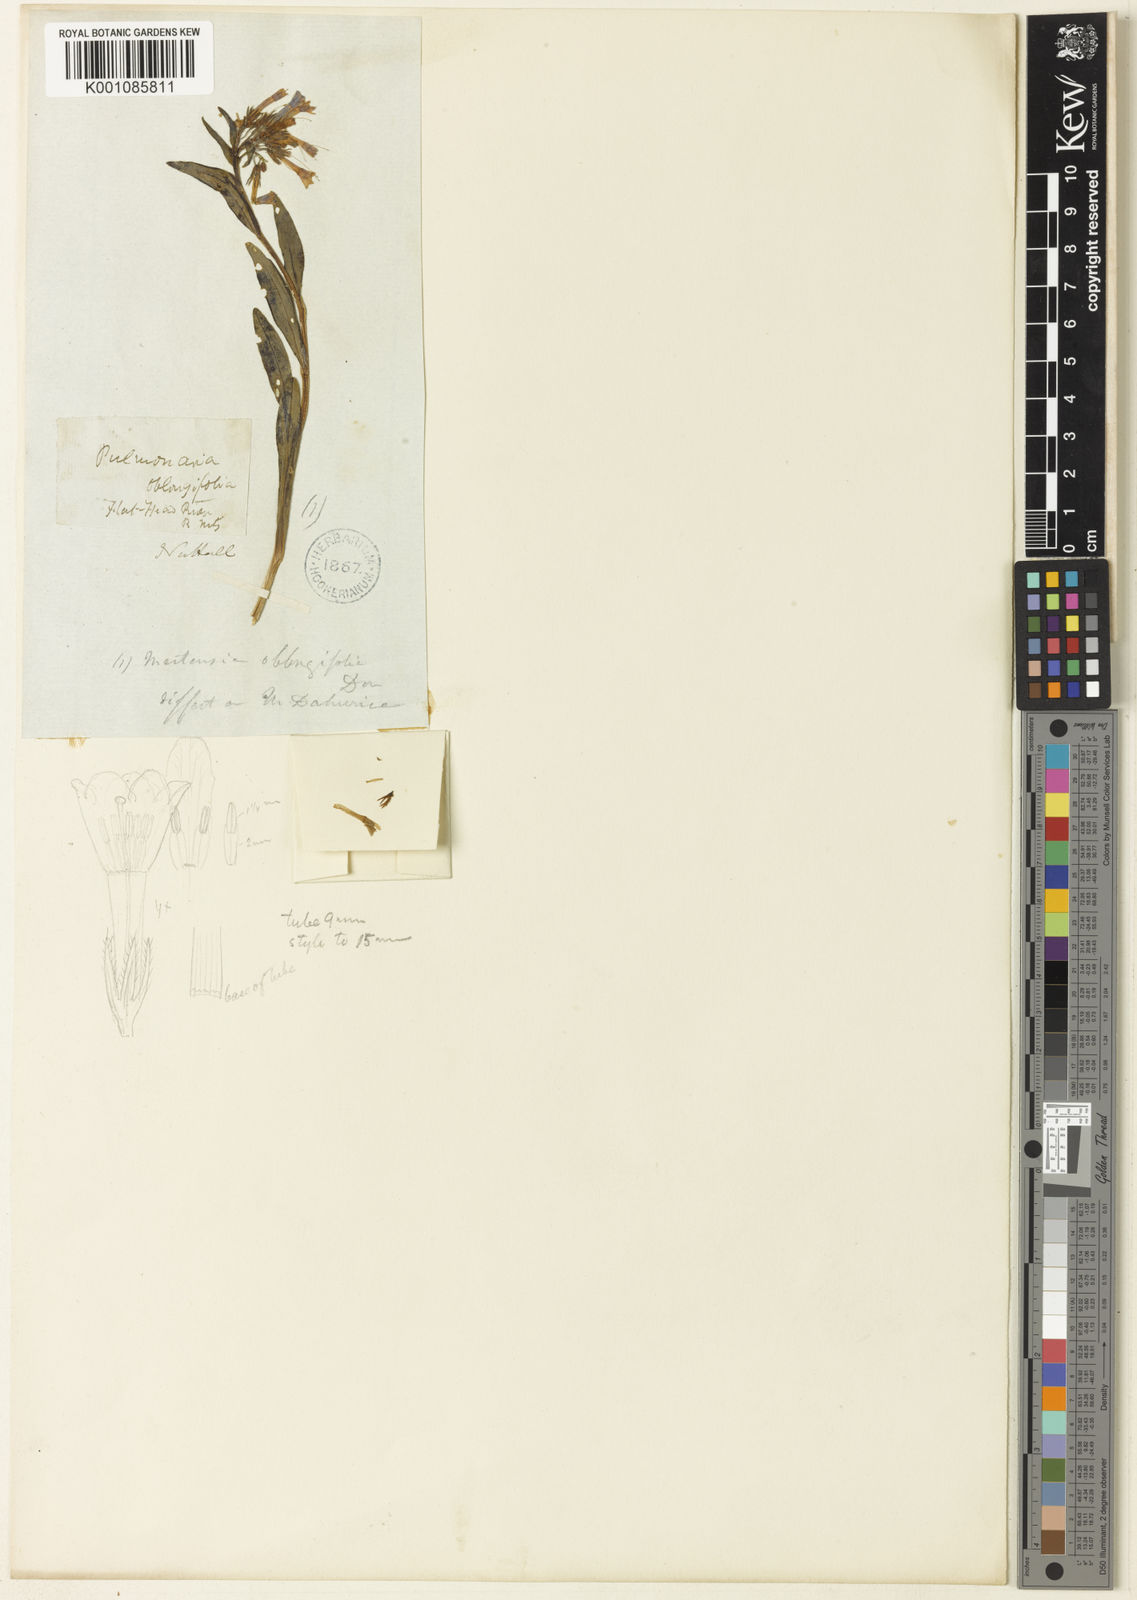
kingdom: Plantae
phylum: Tracheophyta
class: Magnoliopsida
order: Boraginales
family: Boraginaceae
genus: Mertensia
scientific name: Mertensia oblongifolia
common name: Sagebrush bluebells
